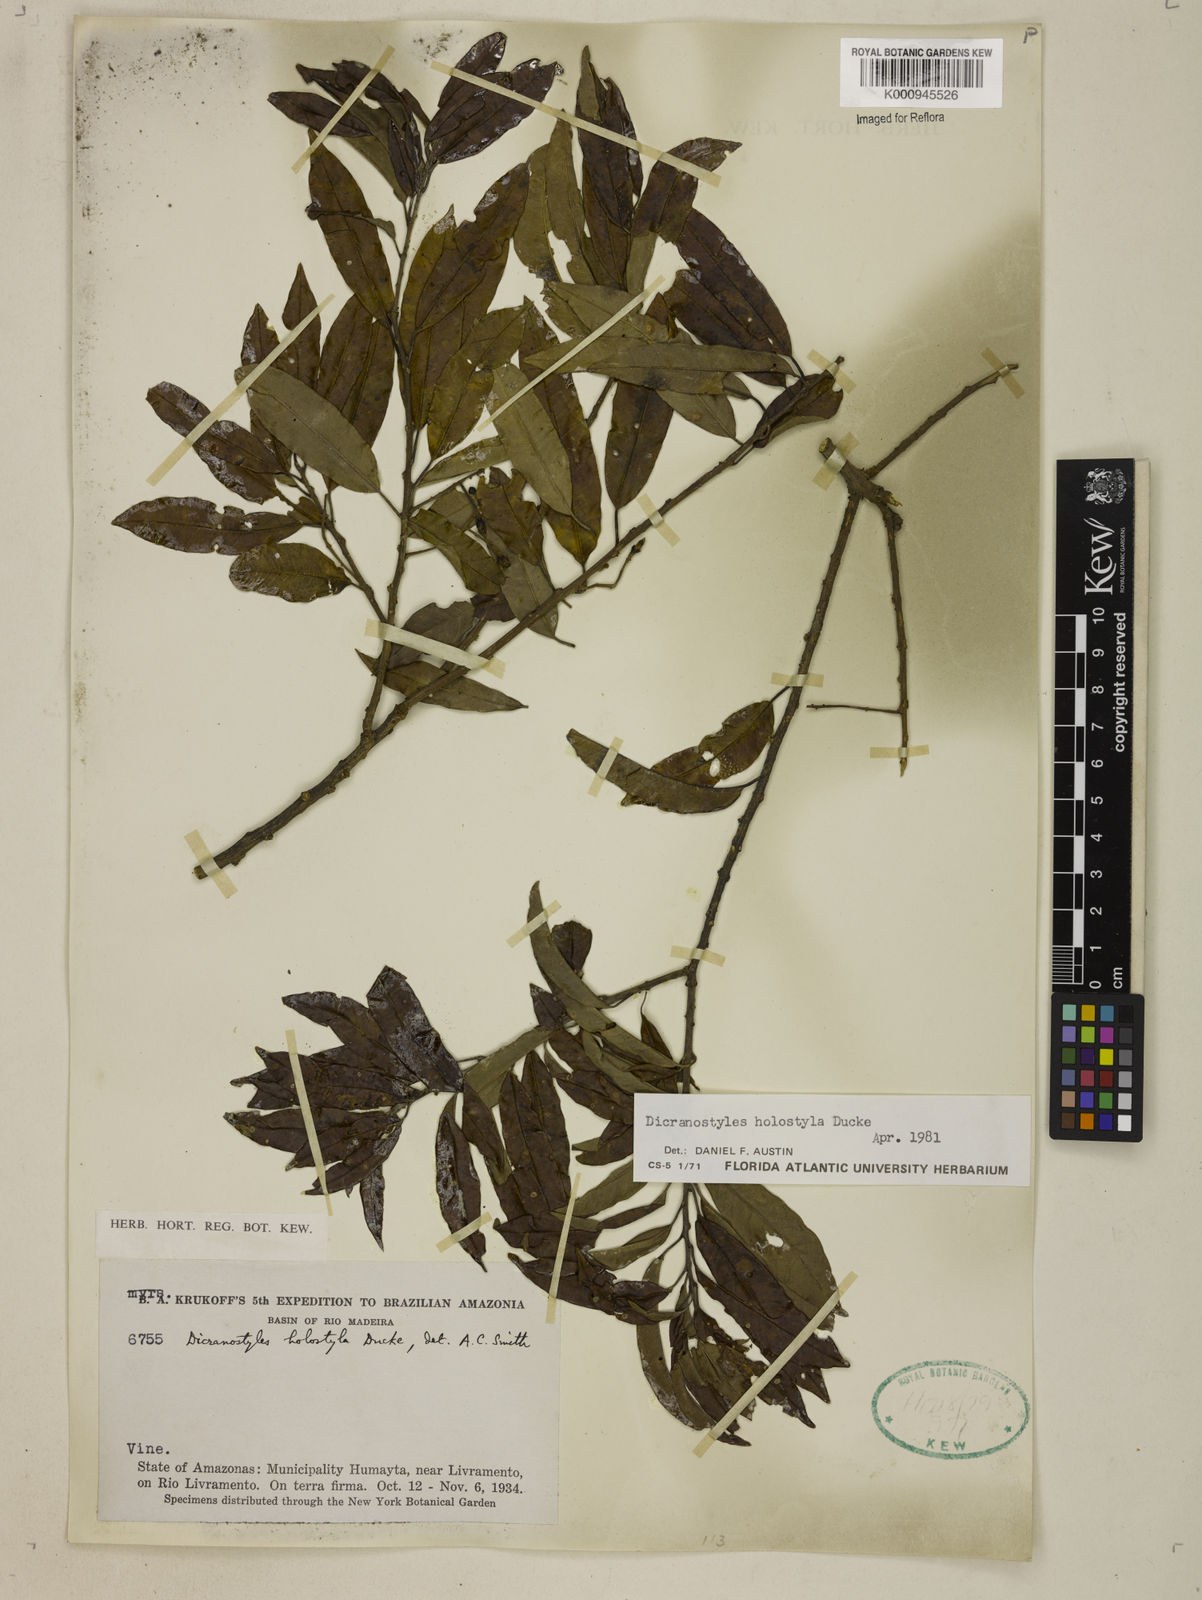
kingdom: Plantae
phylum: Tracheophyta
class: Magnoliopsida
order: Solanales
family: Convolvulaceae
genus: Dicranostyles
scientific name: Dicranostyles holostyla
